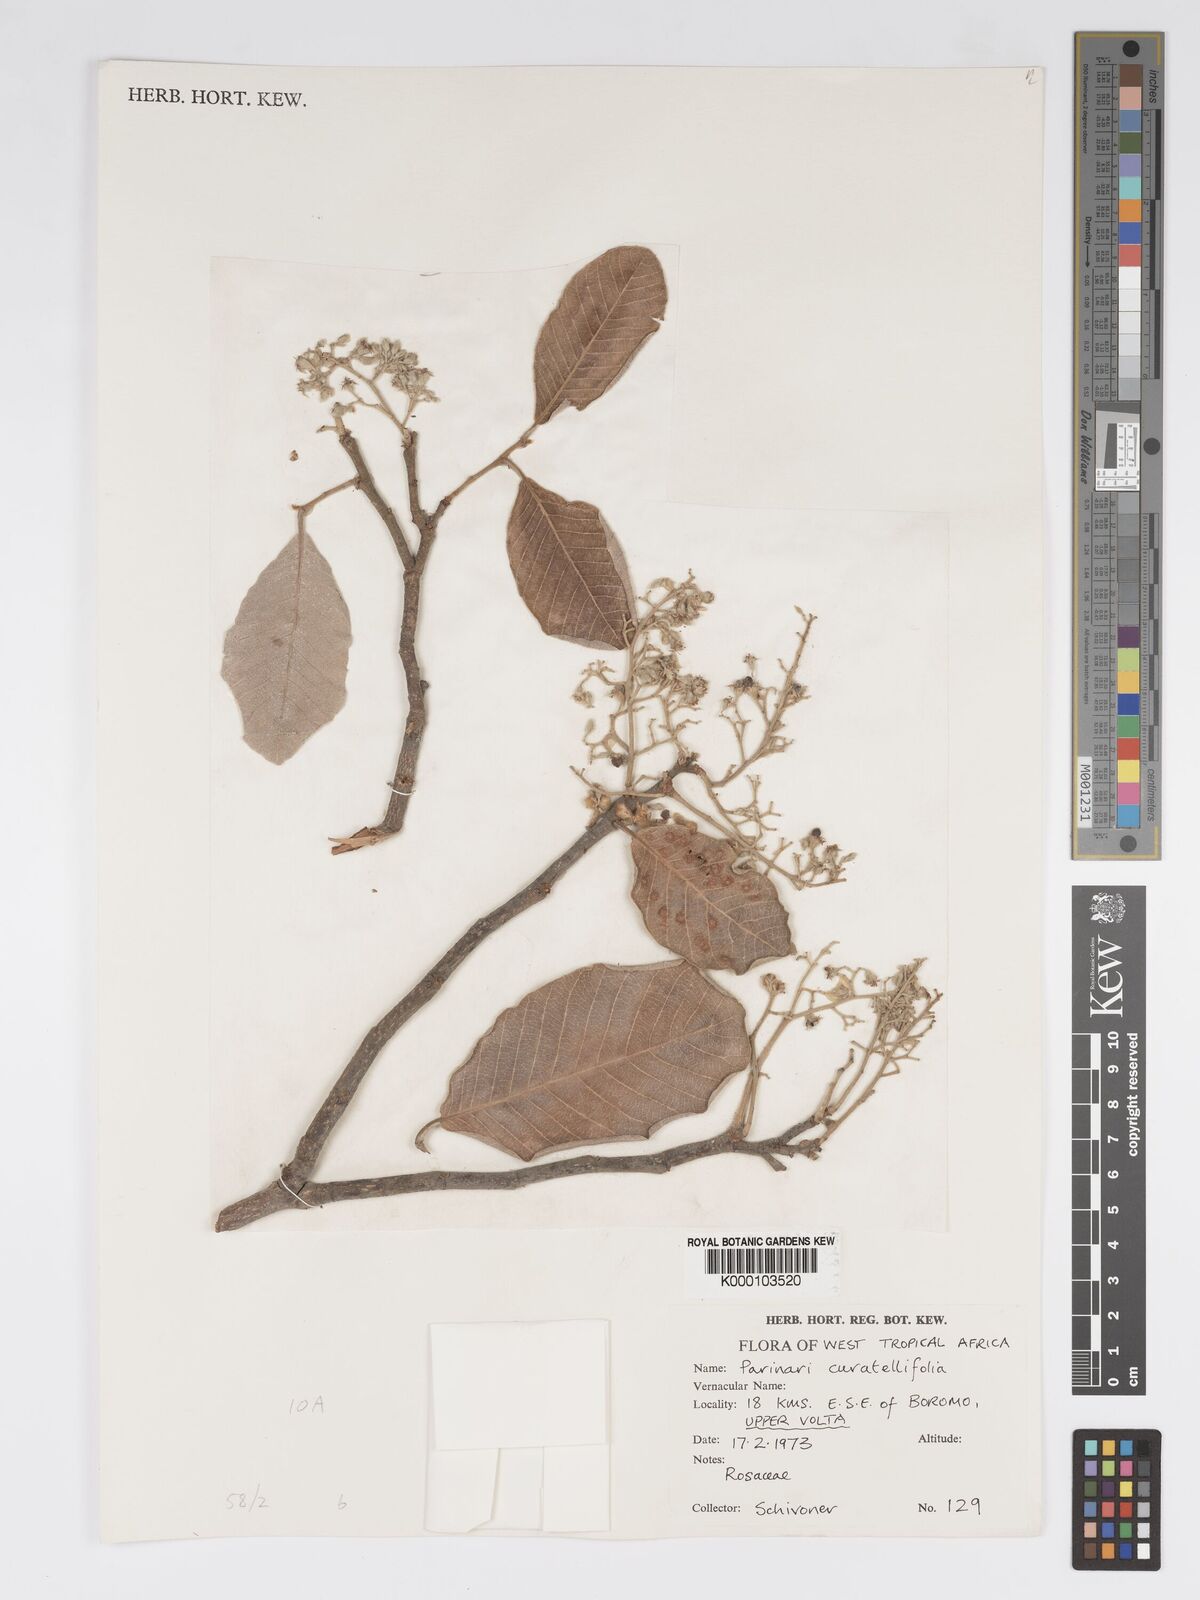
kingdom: Plantae
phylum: Tracheophyta
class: Magnoliopsida
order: Malpighiales
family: Chrysobalanaceae
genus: Parinari
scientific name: Parinari curatellifolia
